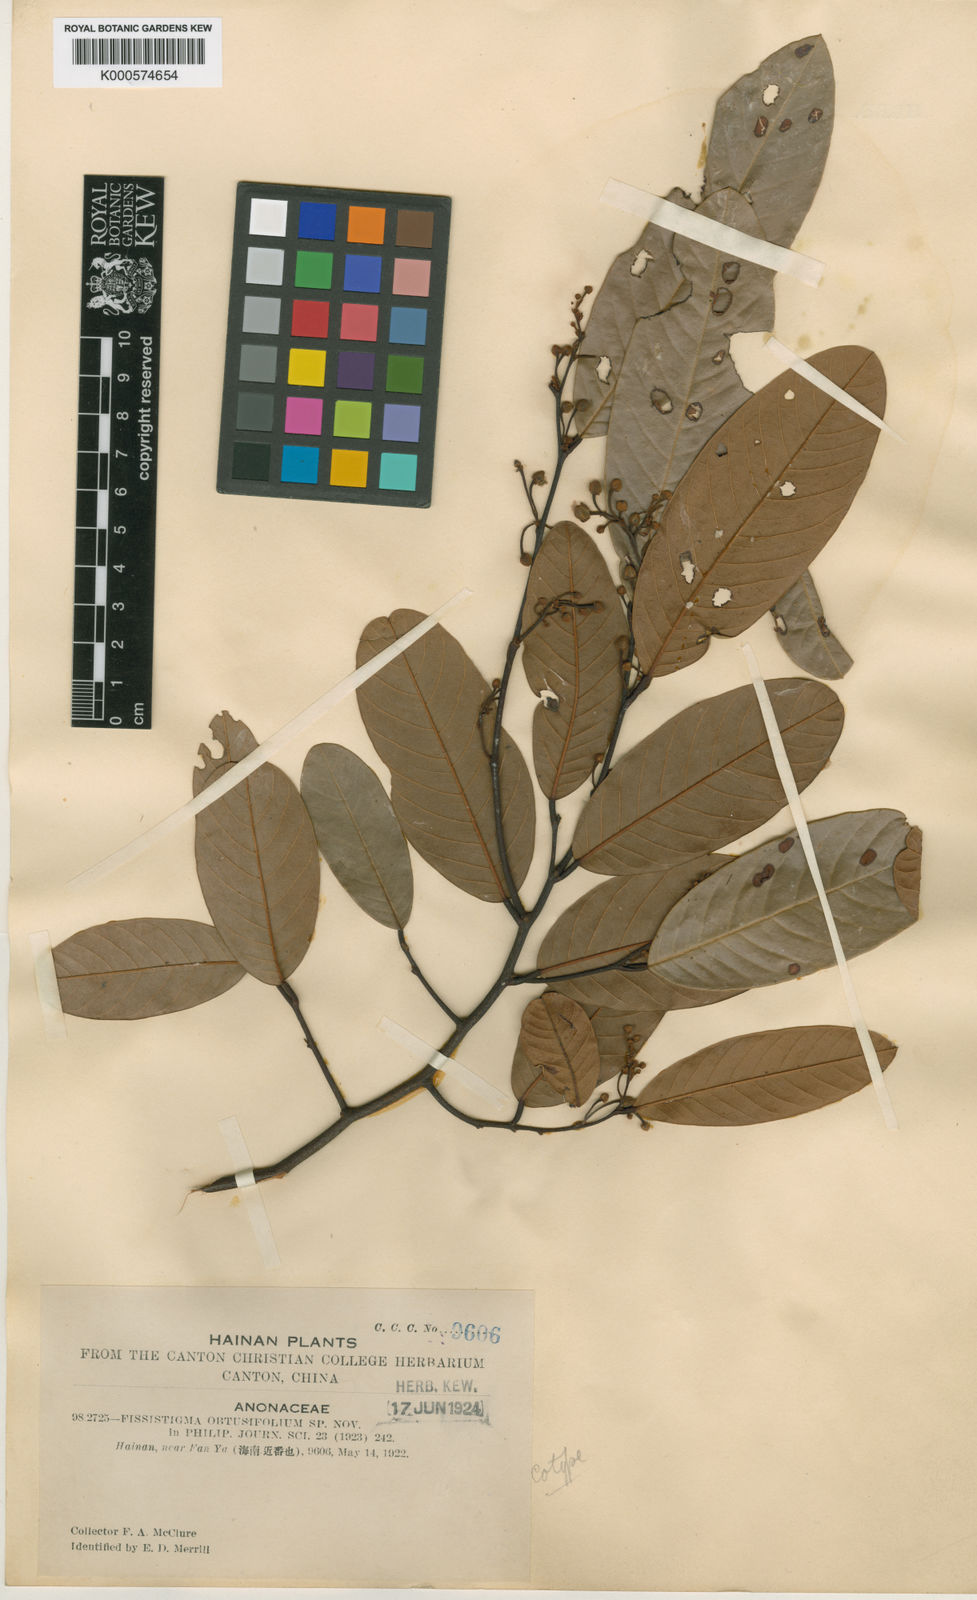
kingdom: Plantae
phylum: Tracheophyta
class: Magnoliopsida
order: Magnoliales
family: Annonaceae
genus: Fissistigma
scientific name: Fissistigma glaucescens
